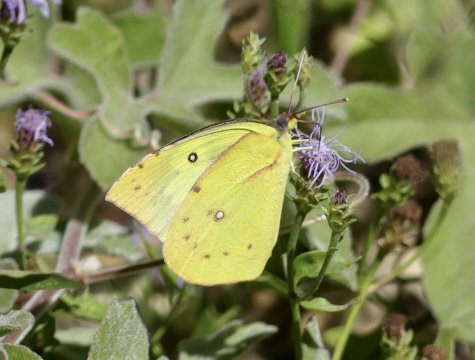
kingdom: Animalia
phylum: Arthropoda
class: Insecta
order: Lepidoptera
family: Pieridae
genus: Zerene
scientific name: Zerene cesonia
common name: Southern Dogface
